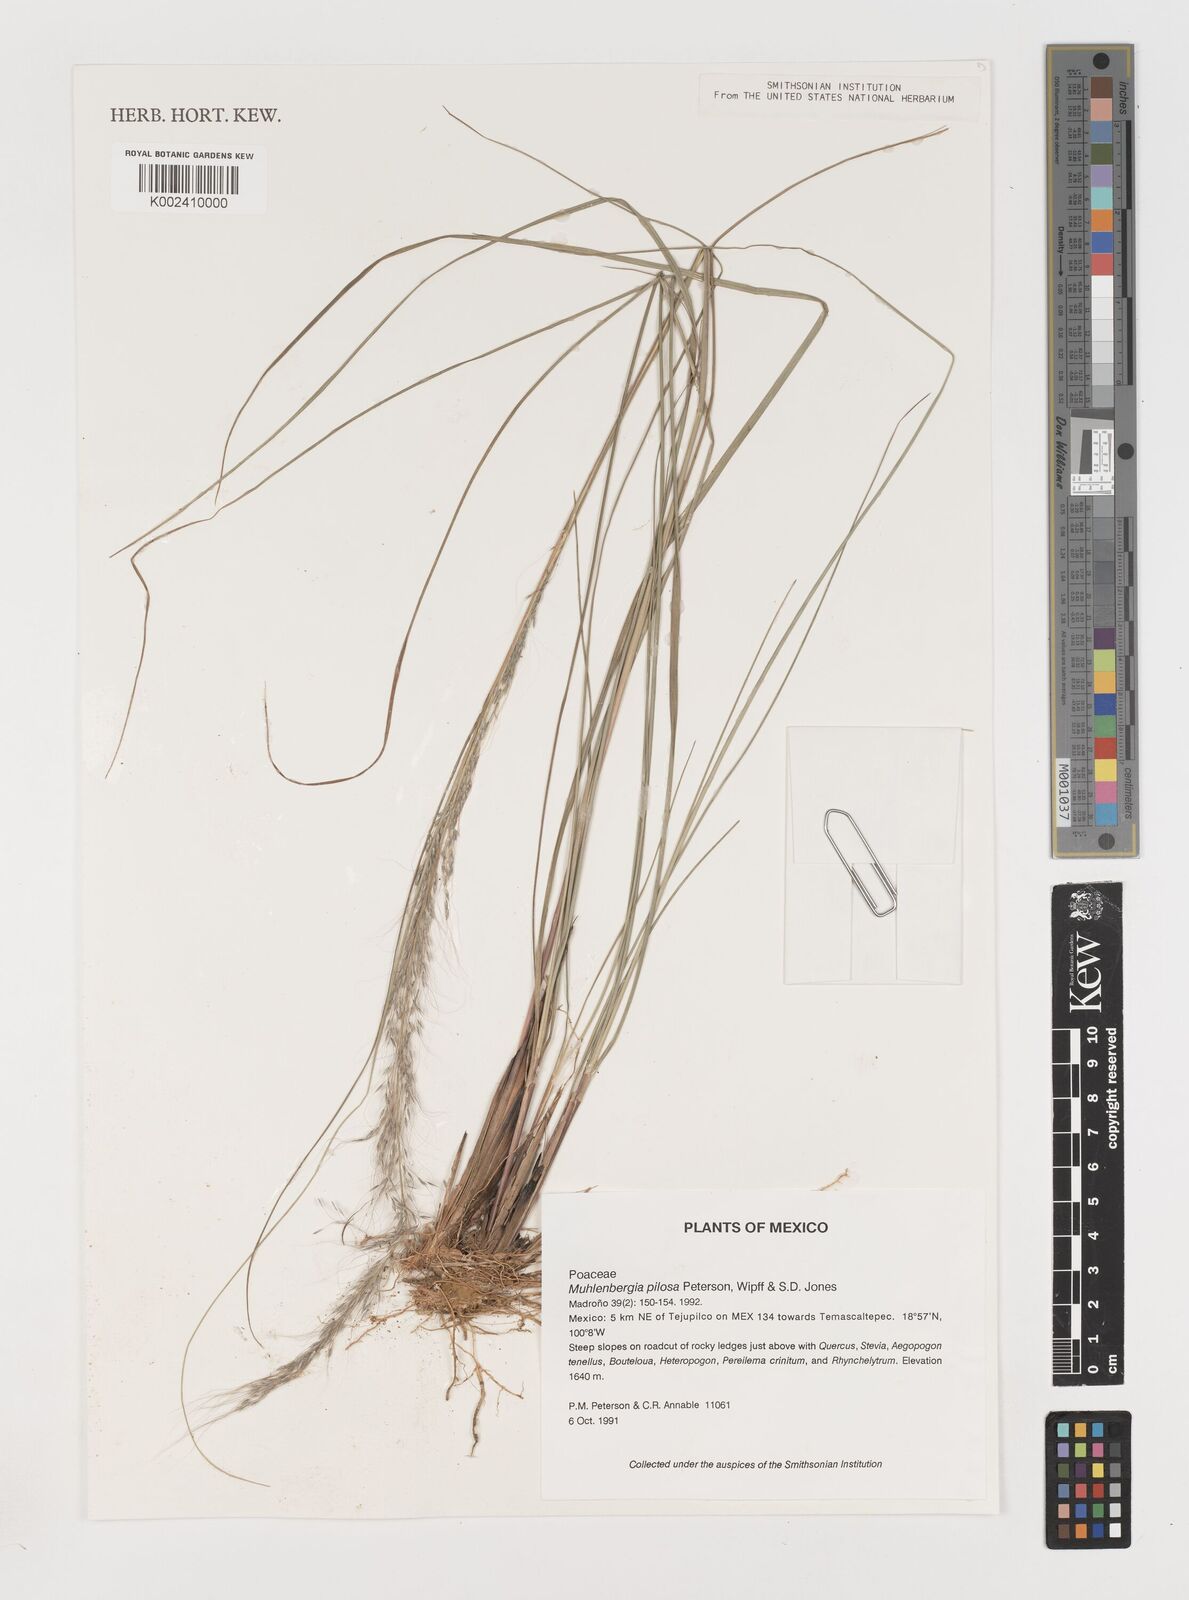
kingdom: Plantae
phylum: Tracheophyta
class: Liliopsida
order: Poales
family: Poaceae
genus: Muhlenbergia
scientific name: Muhlenbergia pilosa
